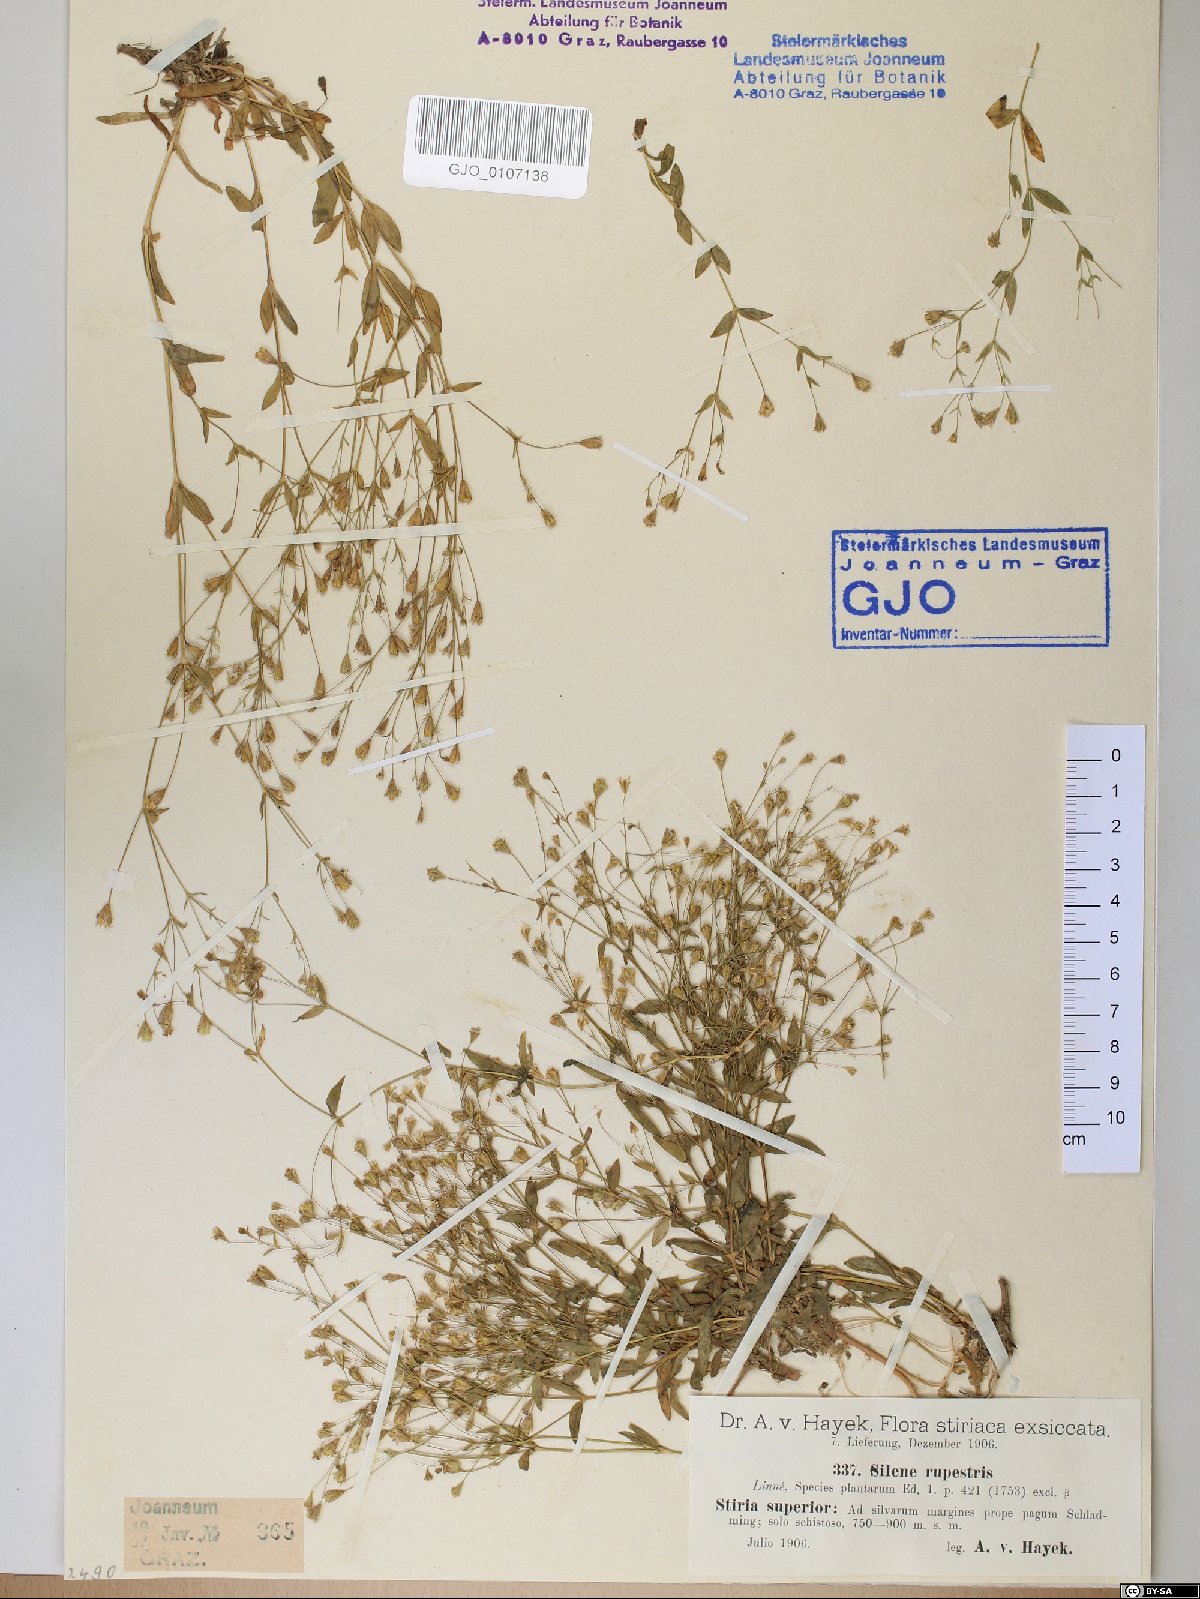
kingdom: Plantae
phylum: Tracheophyta
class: Magnoliopsida
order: Caryophyllales
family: Caryophyllaceae
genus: Atocion
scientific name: Atocion rupestre
